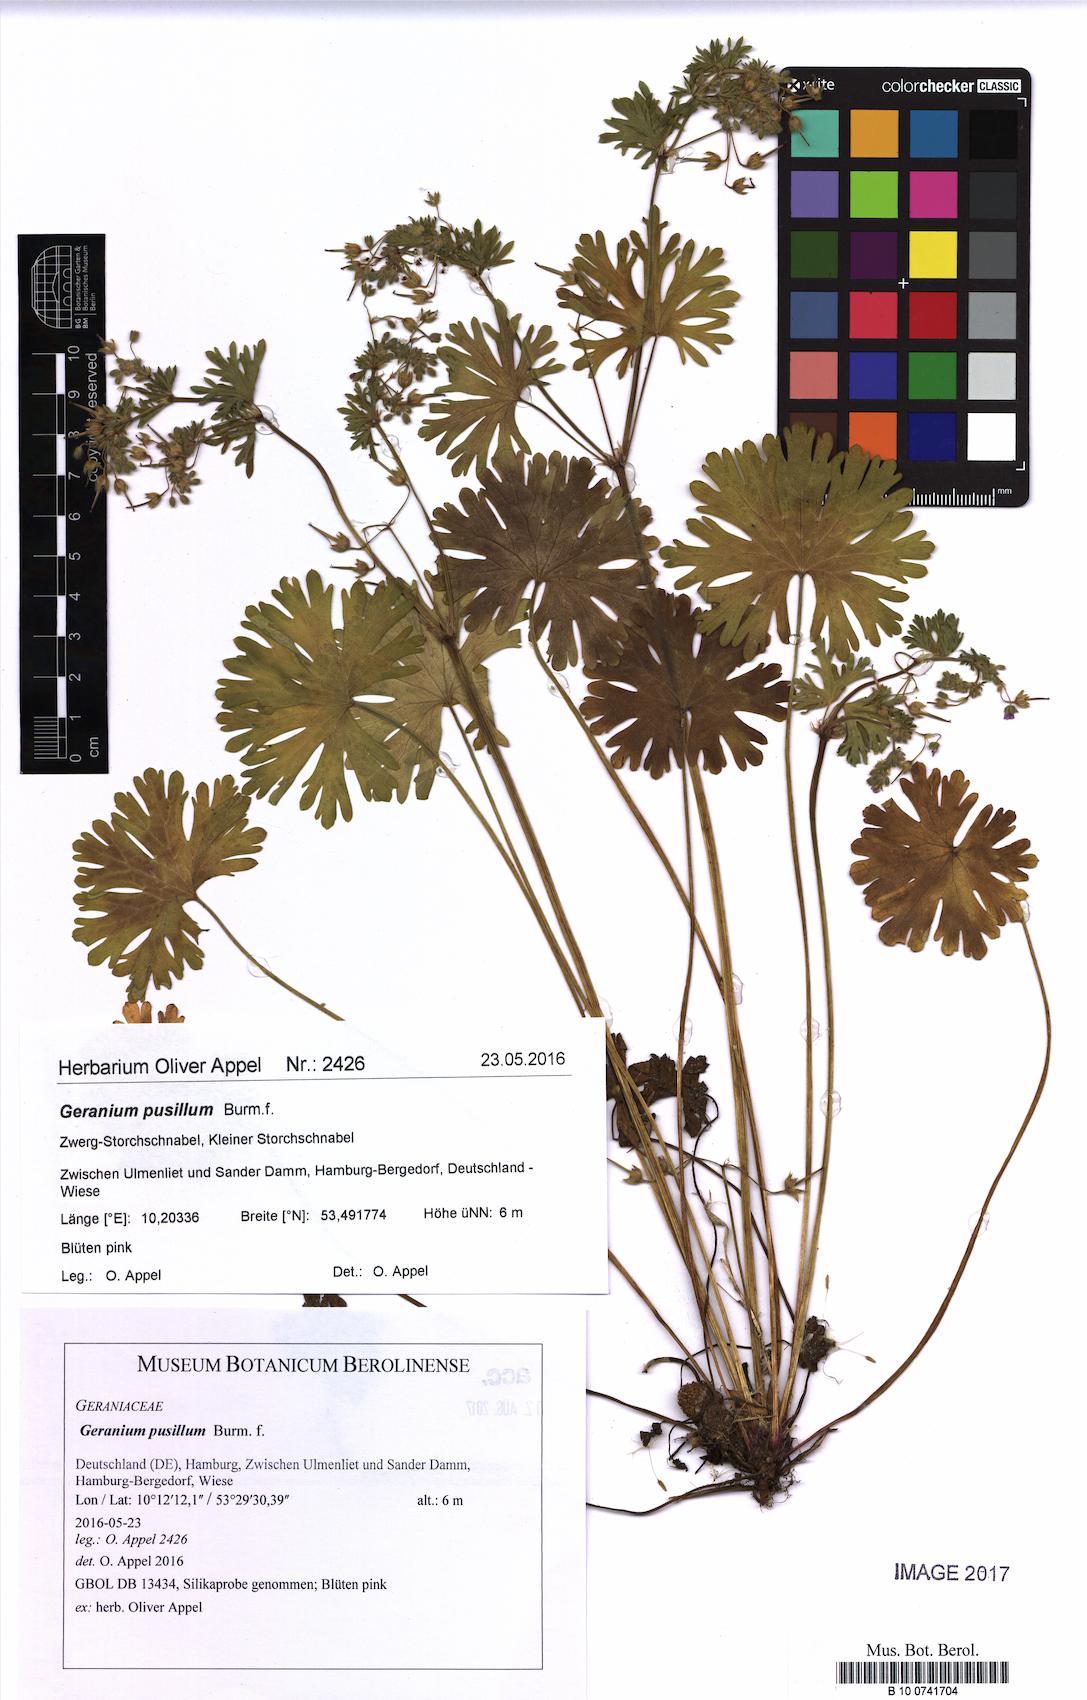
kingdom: Plantae
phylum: Tracheophyta
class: Magnoliopsida
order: Geraniales
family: Geraniaceae
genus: Geranium
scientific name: Geranium pusillum
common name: Small geranium
